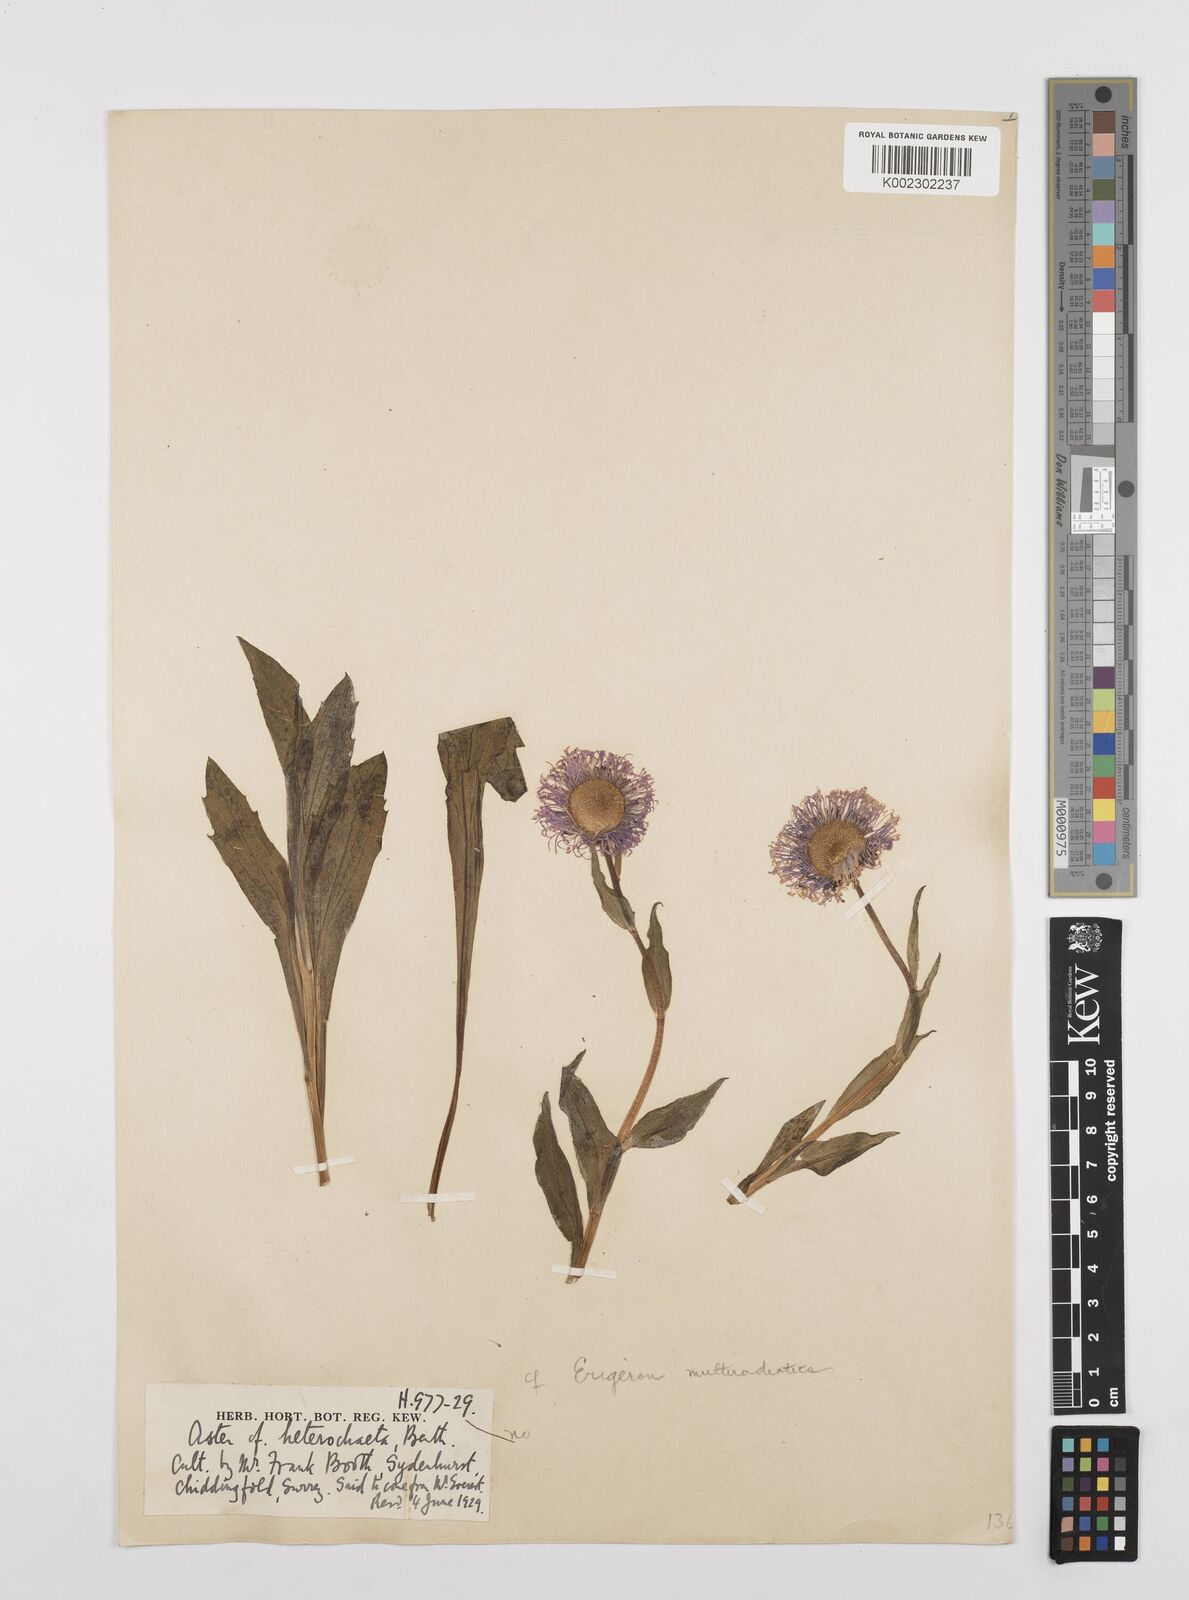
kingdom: Plantae
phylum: Tracheophyta
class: Magnoliopsida
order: Asterales
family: Asteraceae
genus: Erigeron
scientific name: Erigeron multiradiatus
